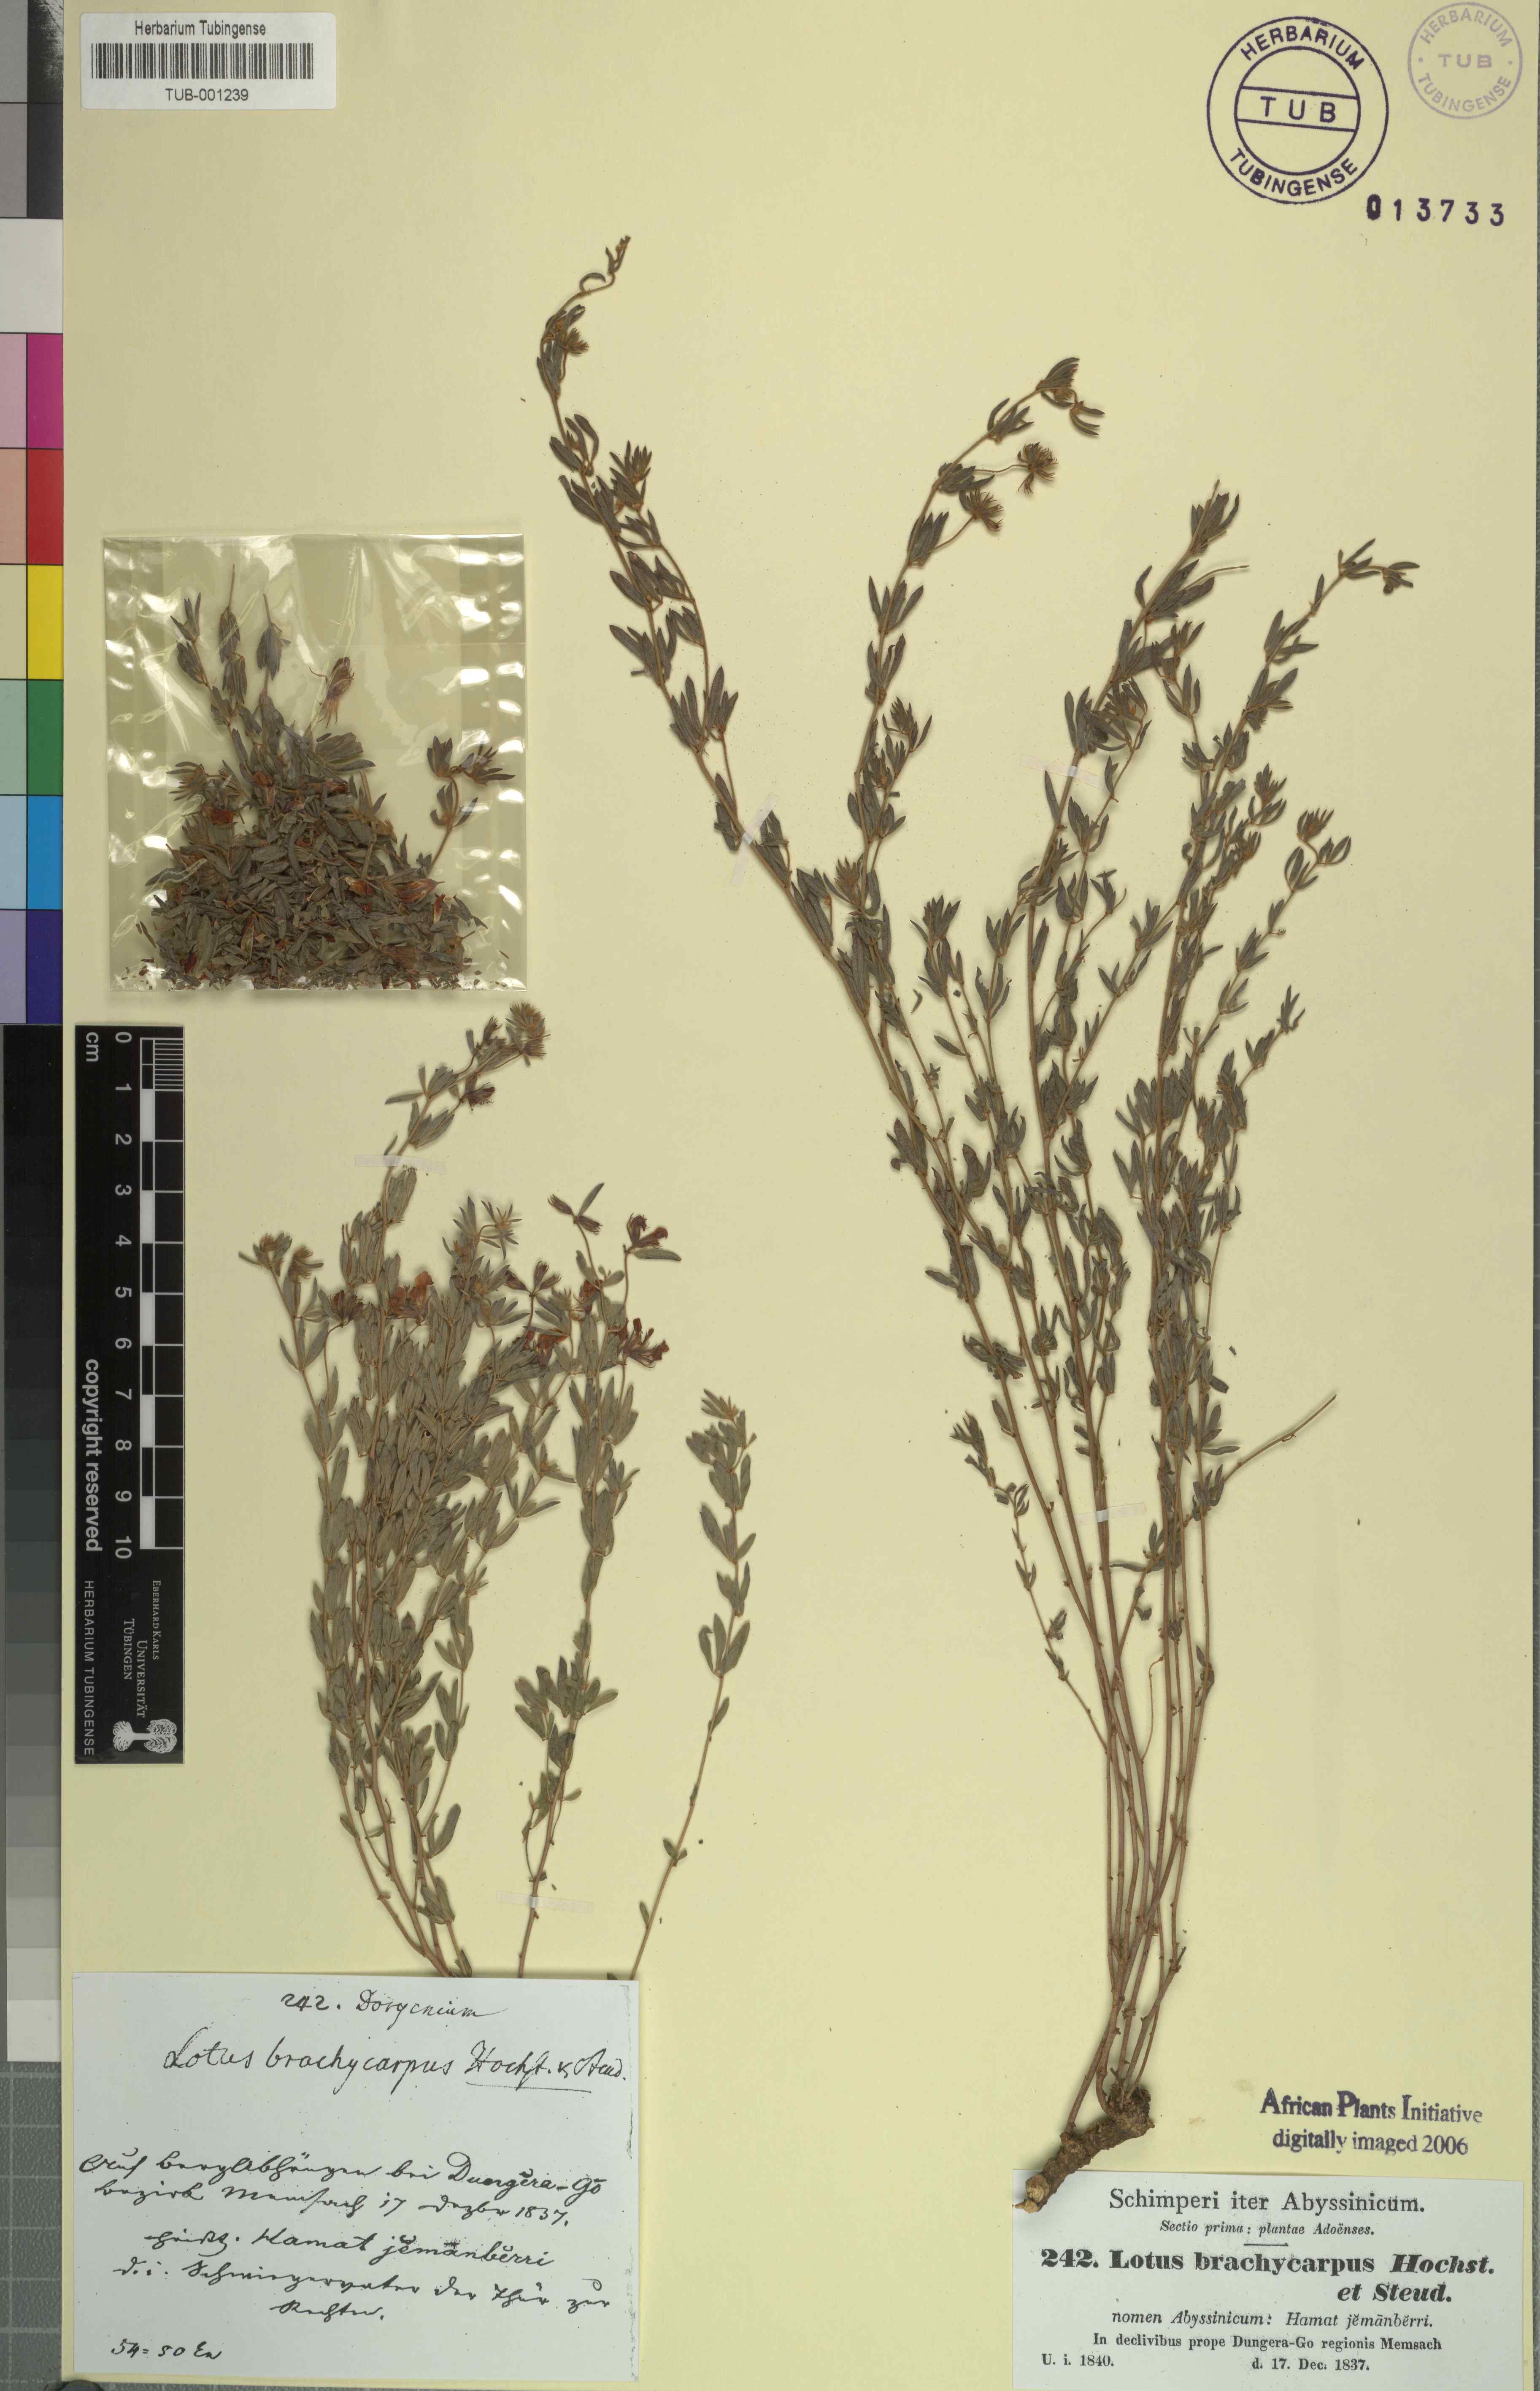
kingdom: Plantae
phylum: Tracheophyta
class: Magnoliopsida
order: Fabales
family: Fabaceae
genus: Lotus
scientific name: Lotus quinatus
